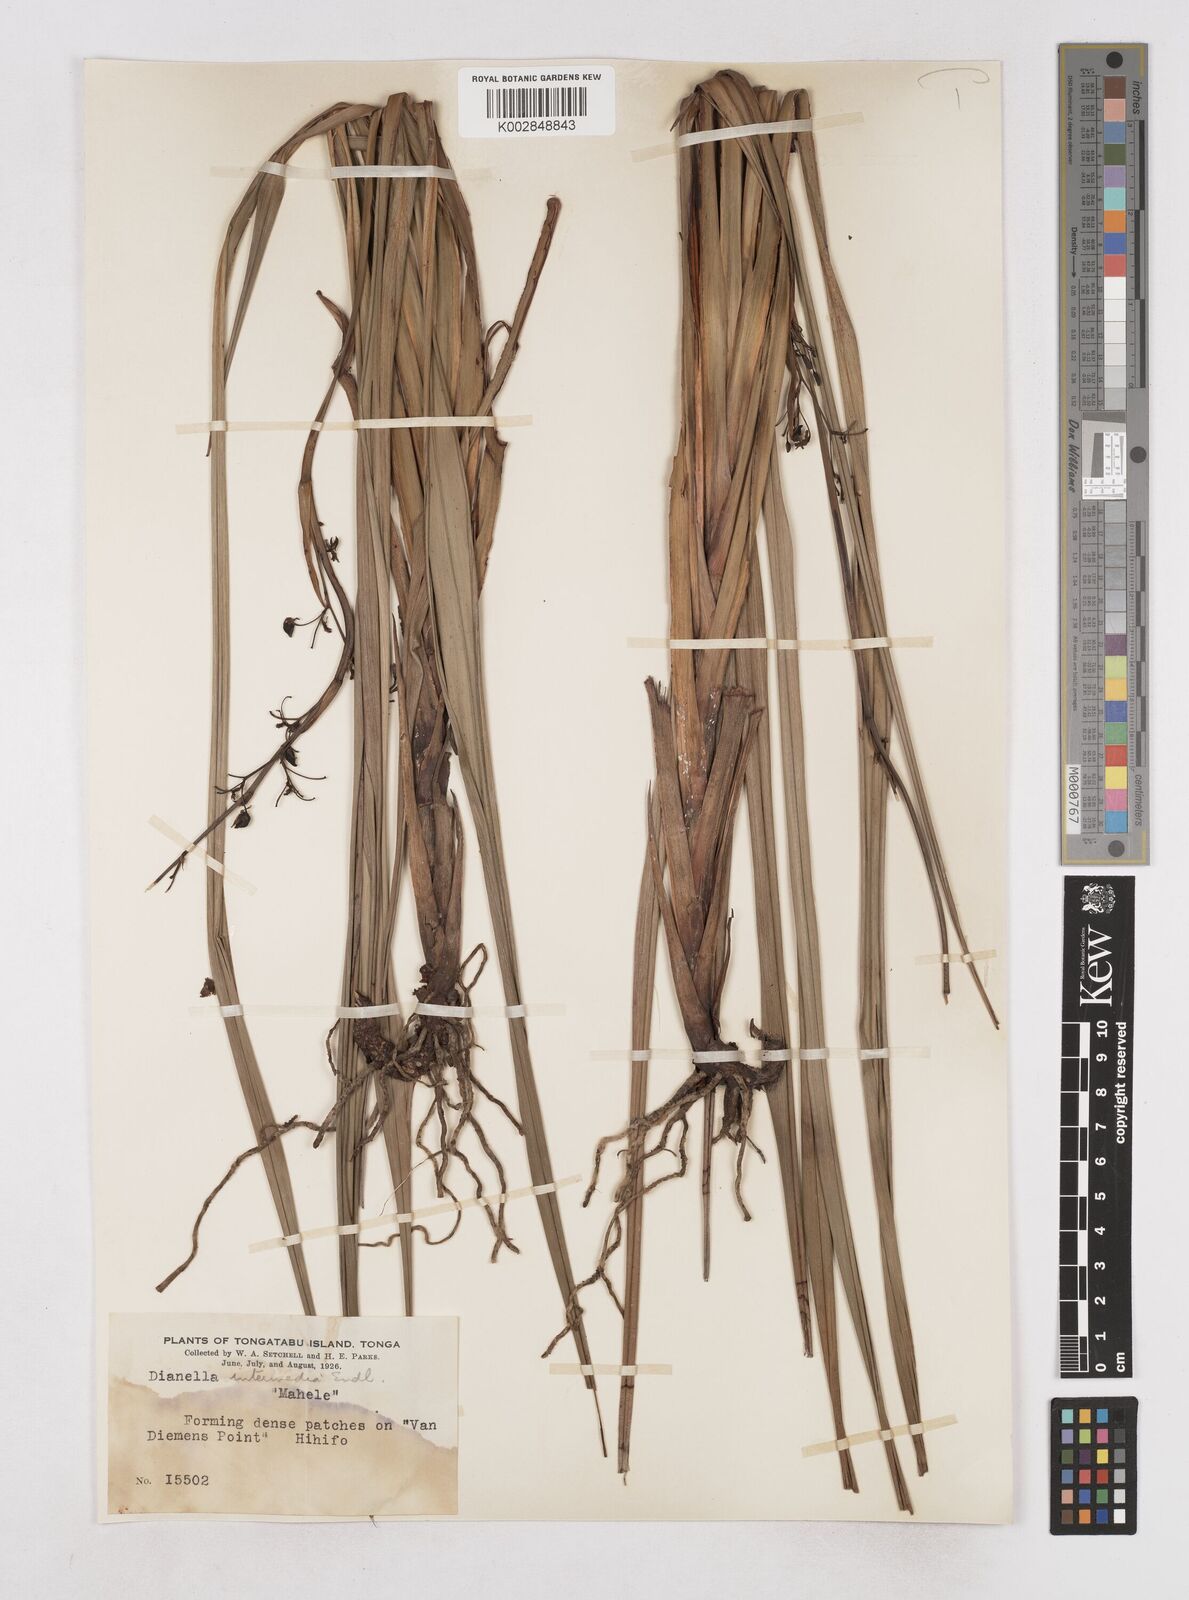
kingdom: Plantae
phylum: Tracheophyta
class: Liliopsida
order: Asparagales
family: Asphodelaceae
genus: Dianella
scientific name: Dianella intermedia
